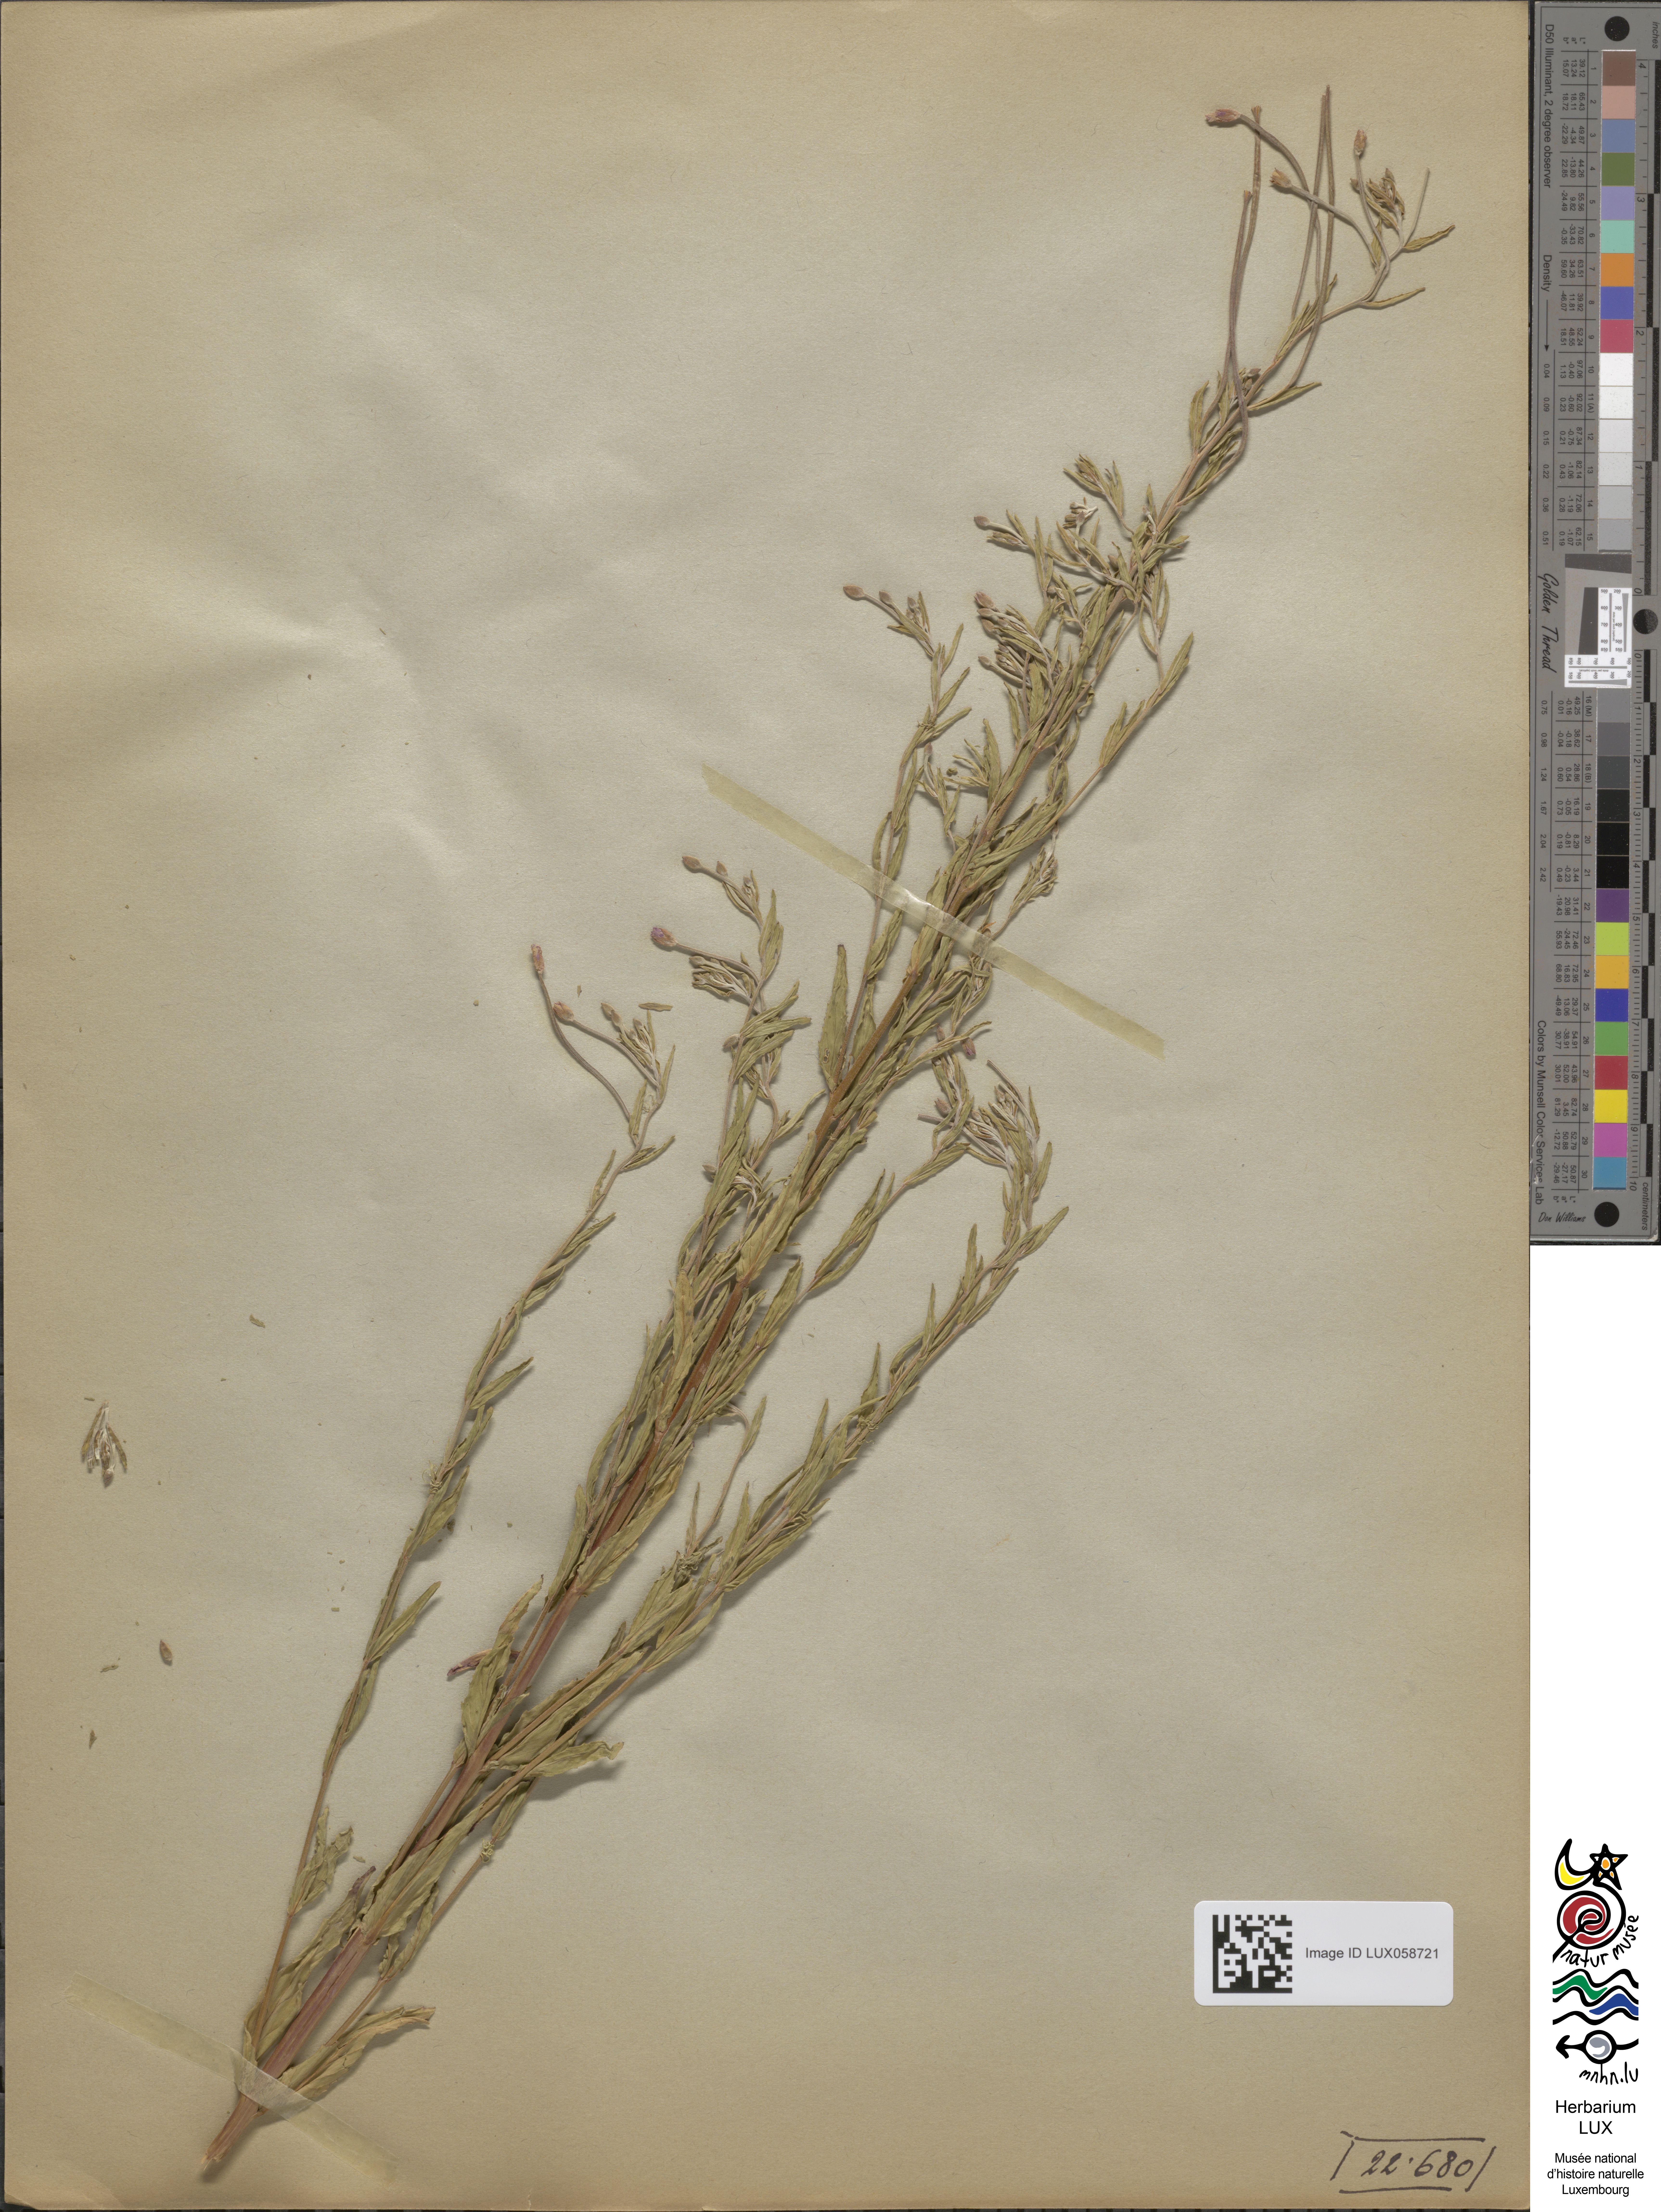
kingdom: Plantae
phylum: Tracheophyta
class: Magnoliopsida
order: Myrtales
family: Onagraceae
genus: Epilobium
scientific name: Epilobium tetragonum
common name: Square-stemmed willowherb
